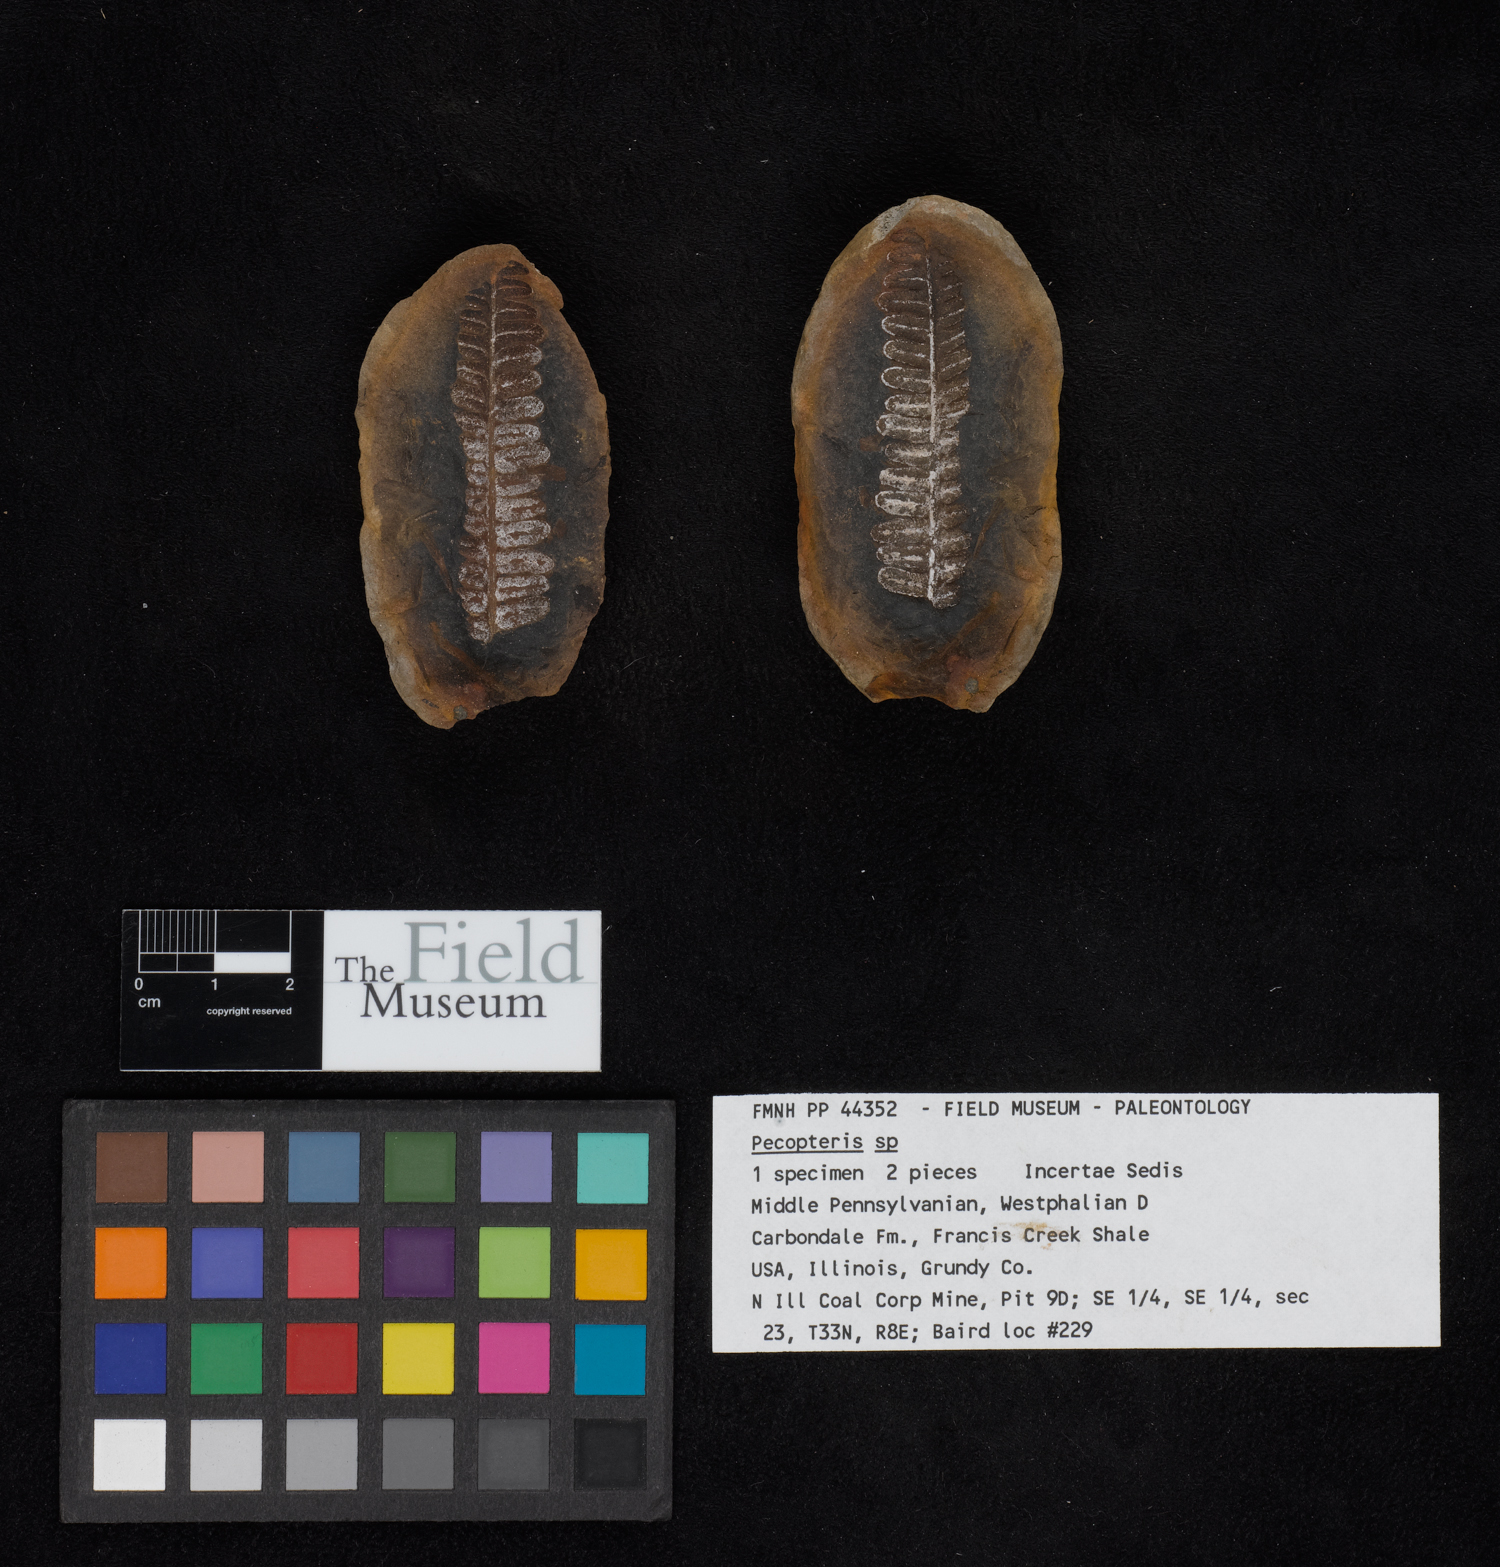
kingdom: Plantae
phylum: Tracheophyta
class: Polypodiopsida
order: Marattiales
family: Asterothecaceae
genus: Pecopteris
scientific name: Pecopteris
